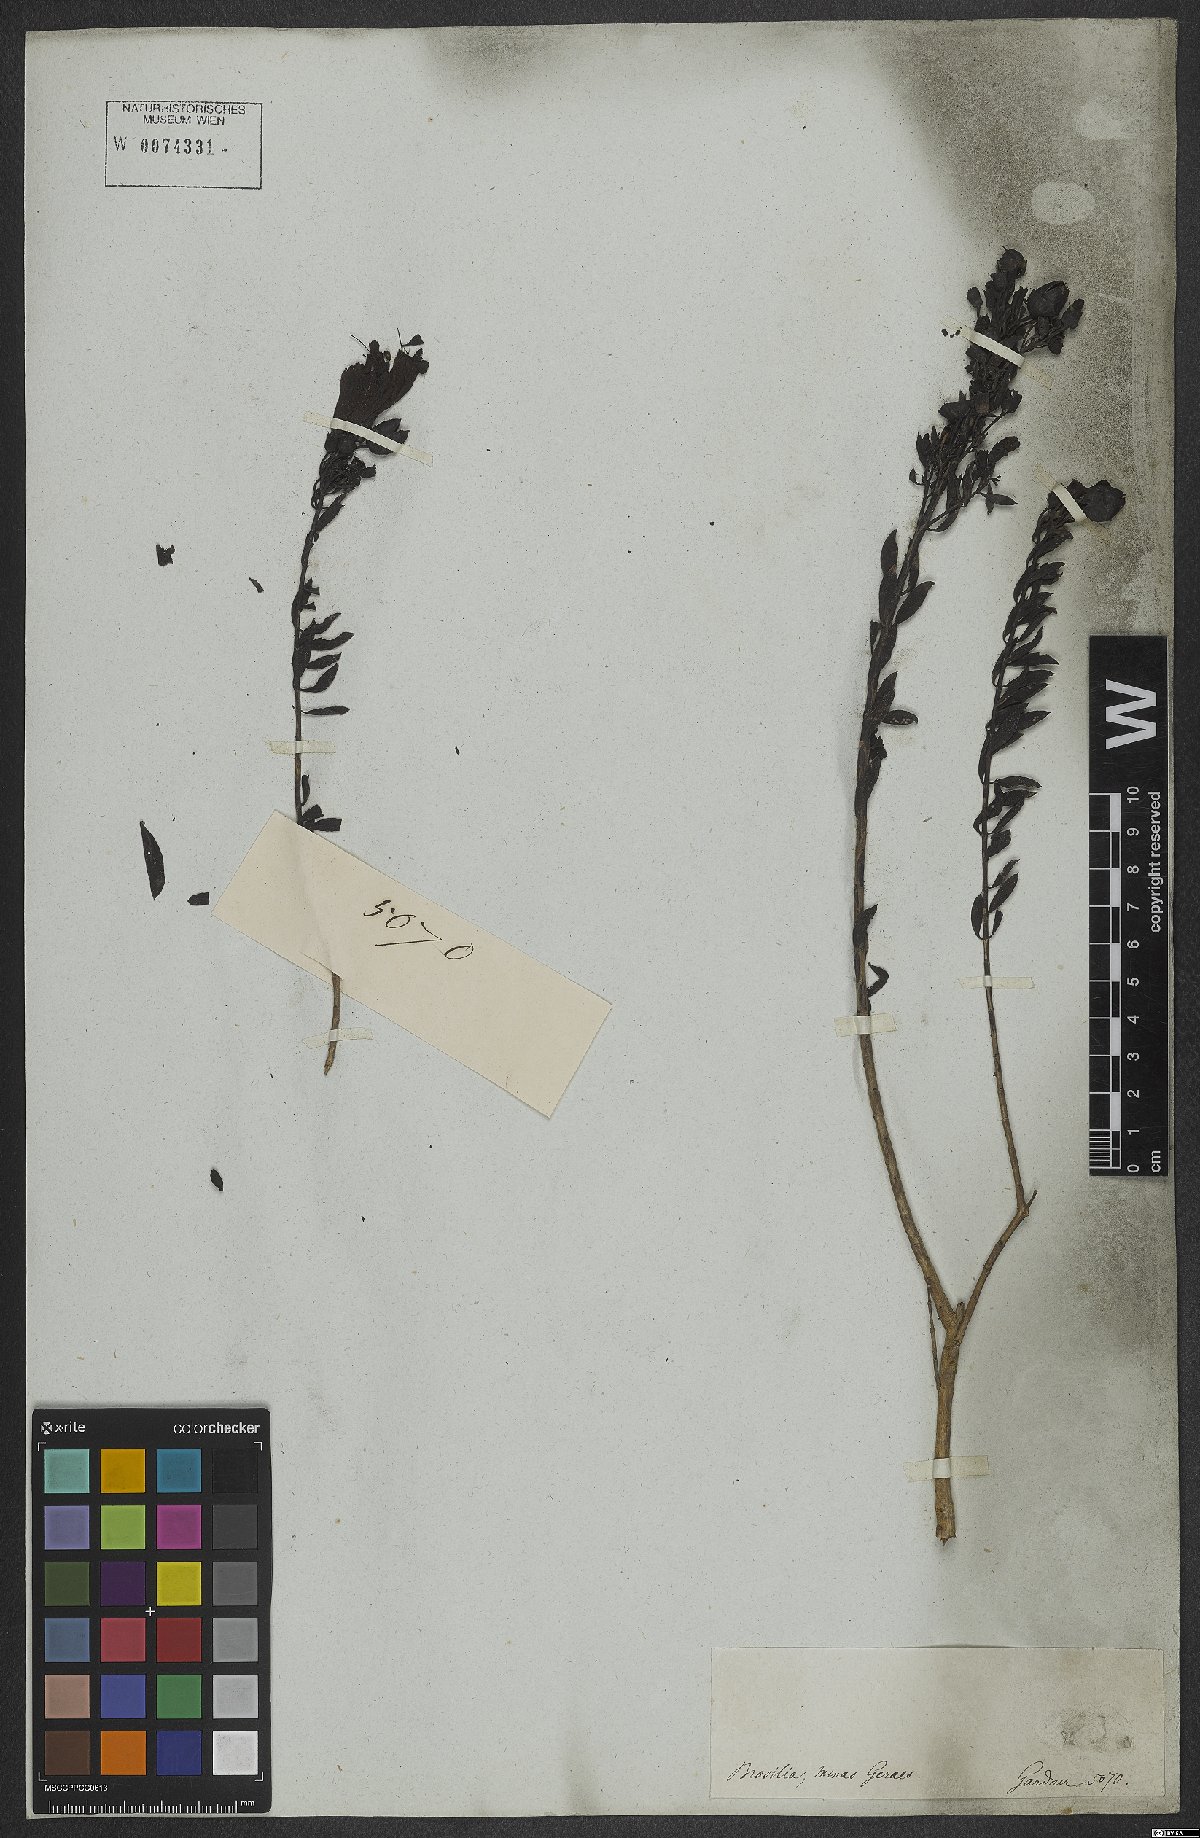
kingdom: Plantae
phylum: Tracheophyta
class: Magnoliopsida
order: Lamiales
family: Scrophulariaceae
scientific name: Scrophulariaceae
